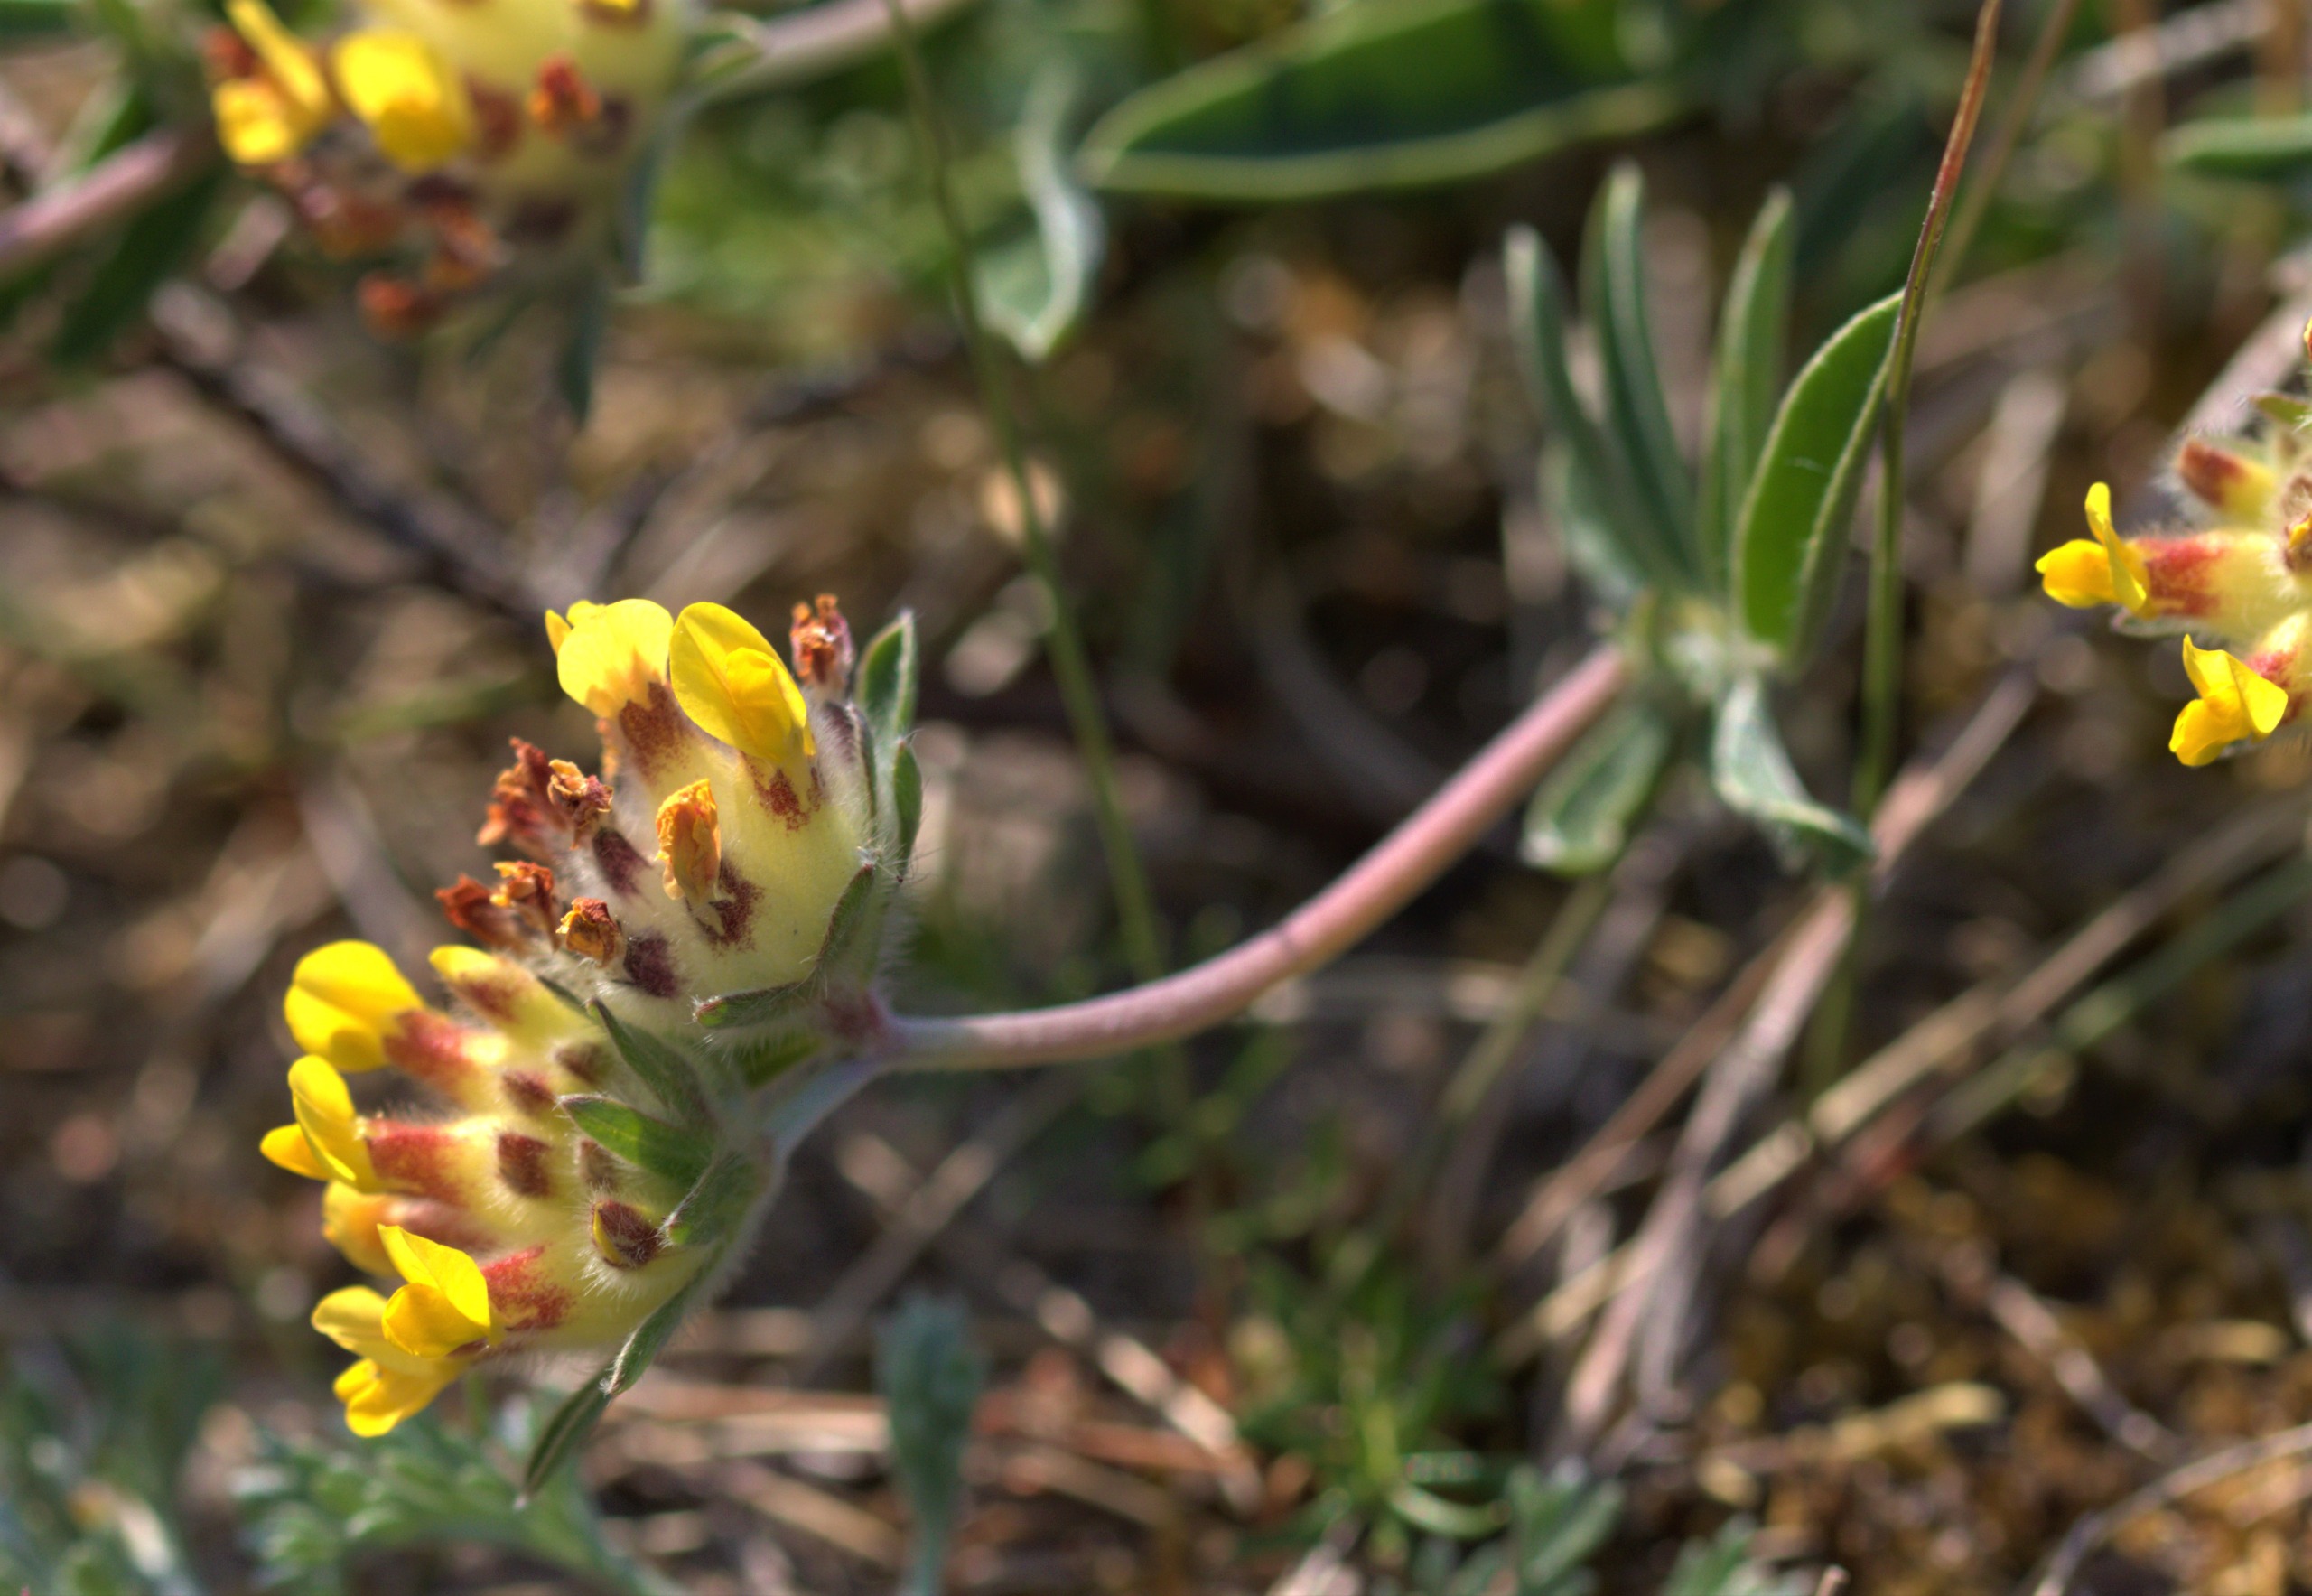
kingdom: Plantae
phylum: Tracheophyta
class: Magnoliopsida
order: Fabales
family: Fabaceae
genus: Anthyllis
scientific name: Anthyllis vulneraria
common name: Rundbælg
